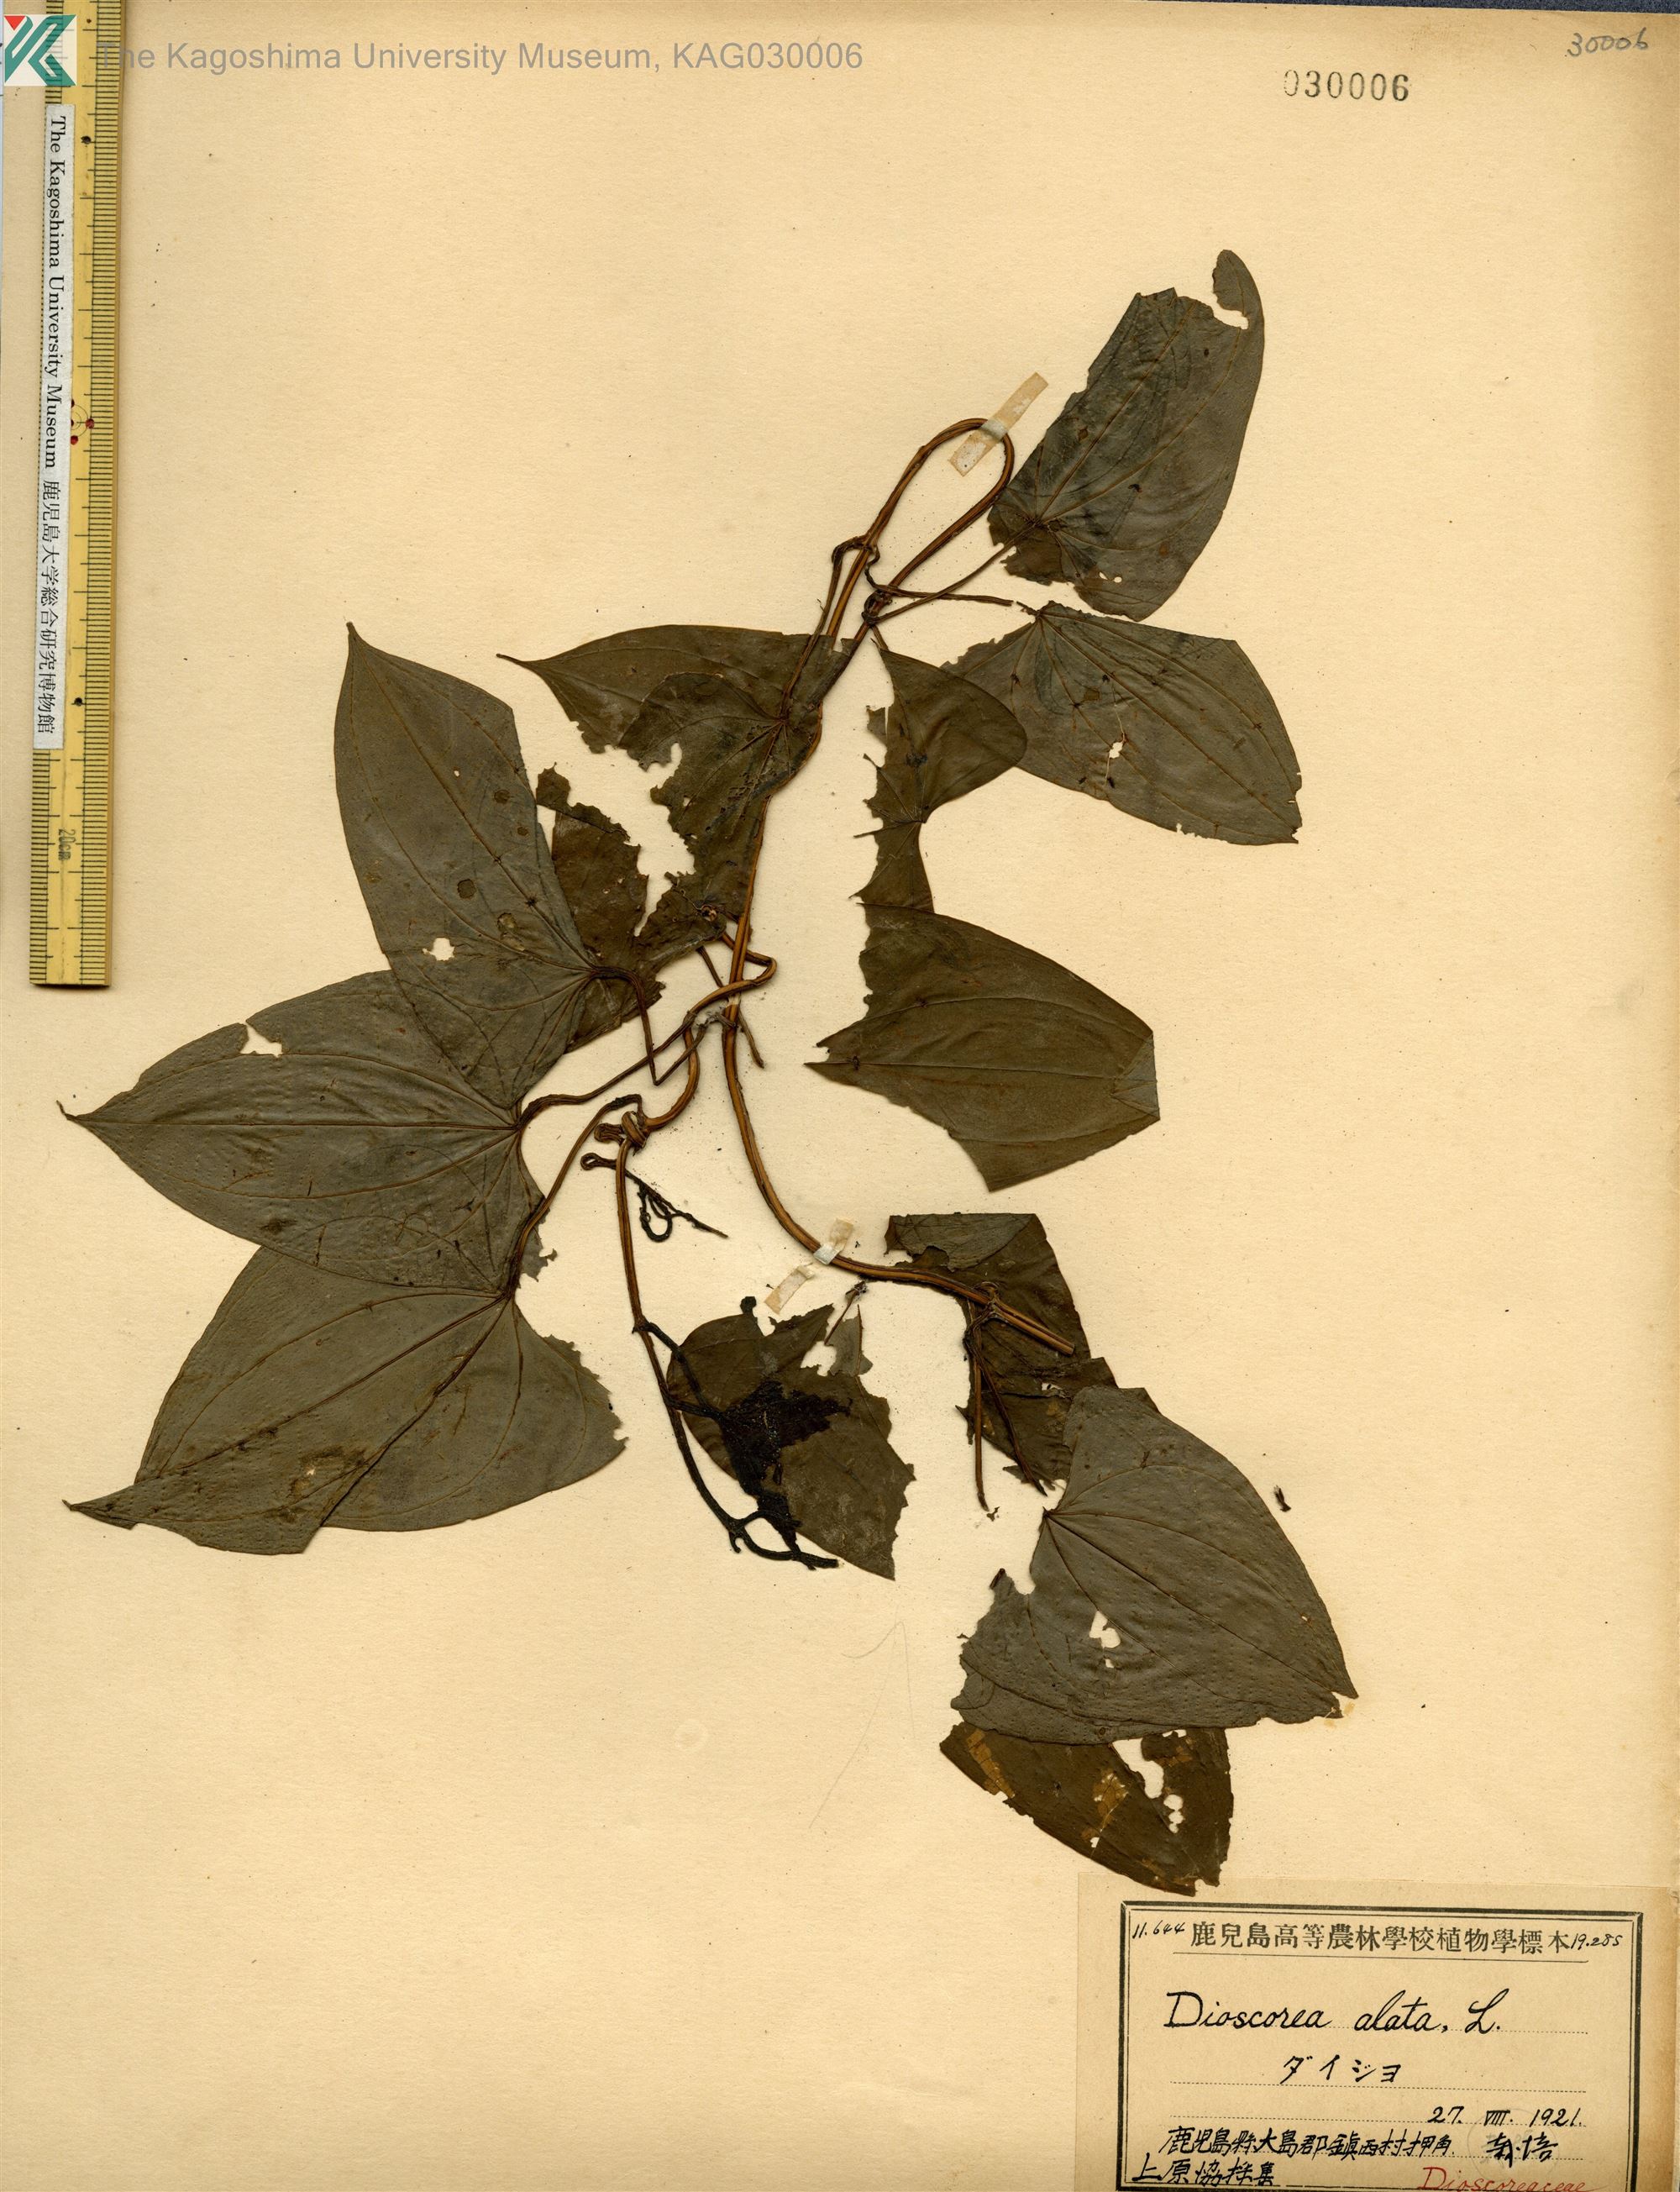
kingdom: Plantae
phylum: Tracheophyta
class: Liliopsida
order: Dioscoreales
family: Dioscoreaceae
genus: Dioscorea
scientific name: Dioscorea alata
